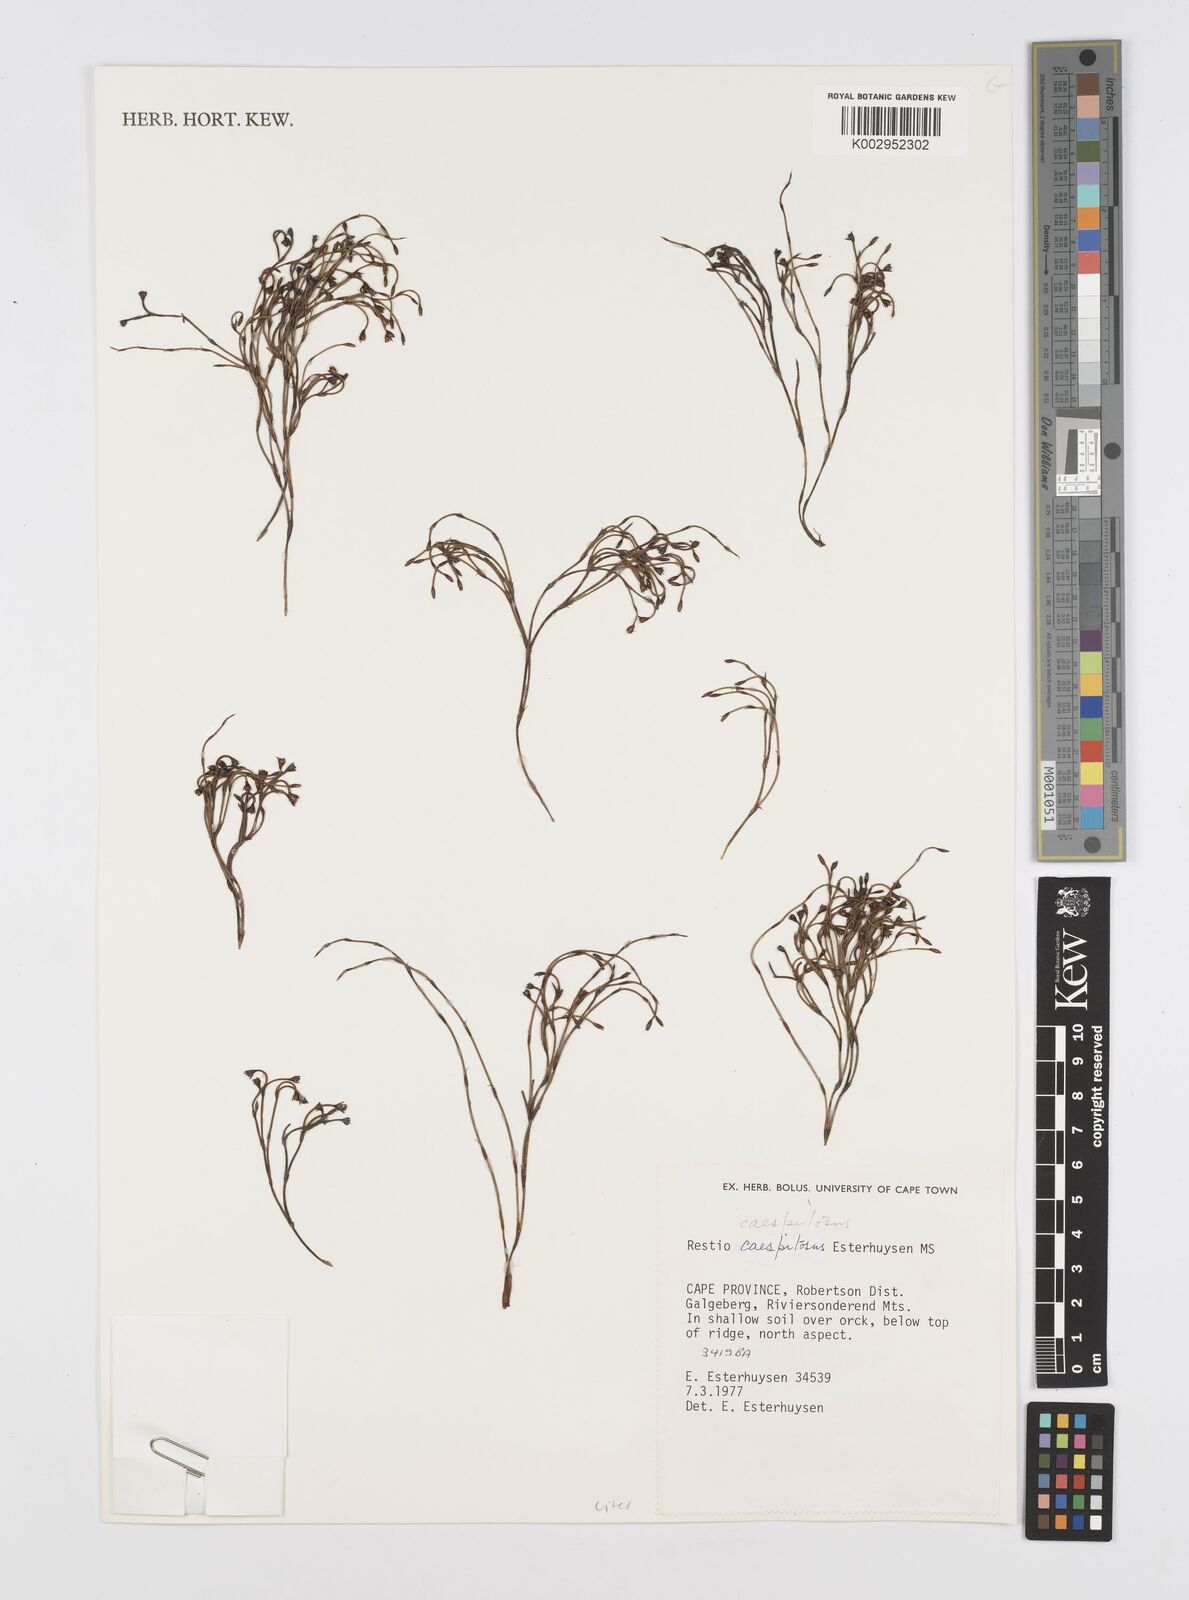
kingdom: Plantae
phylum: Tracheophyta
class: Liliopsida
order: Poales
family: Restionaceae
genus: Restio
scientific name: Restio caespitosus
